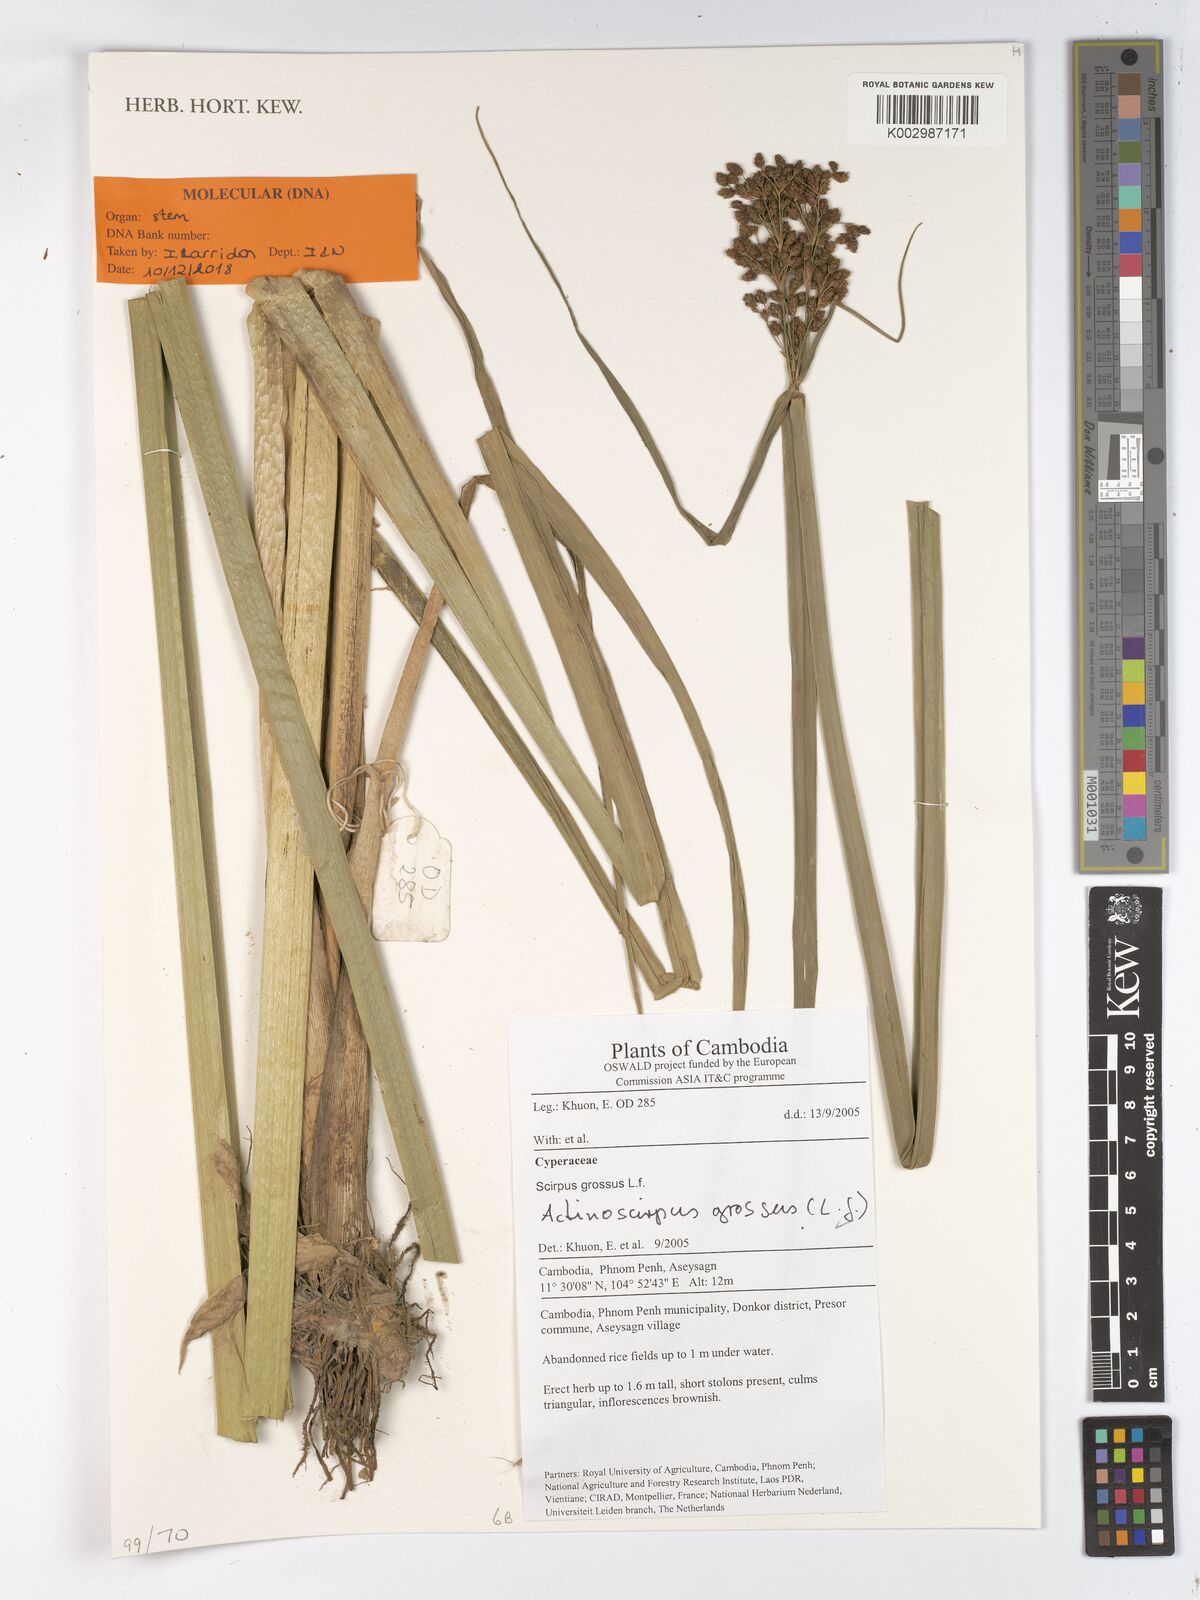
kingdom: Plantae
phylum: Tracheophyta
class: Liliopsida
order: Poales
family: Cyperaceae
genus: Actinoschoenus
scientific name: Actinoschoenus
